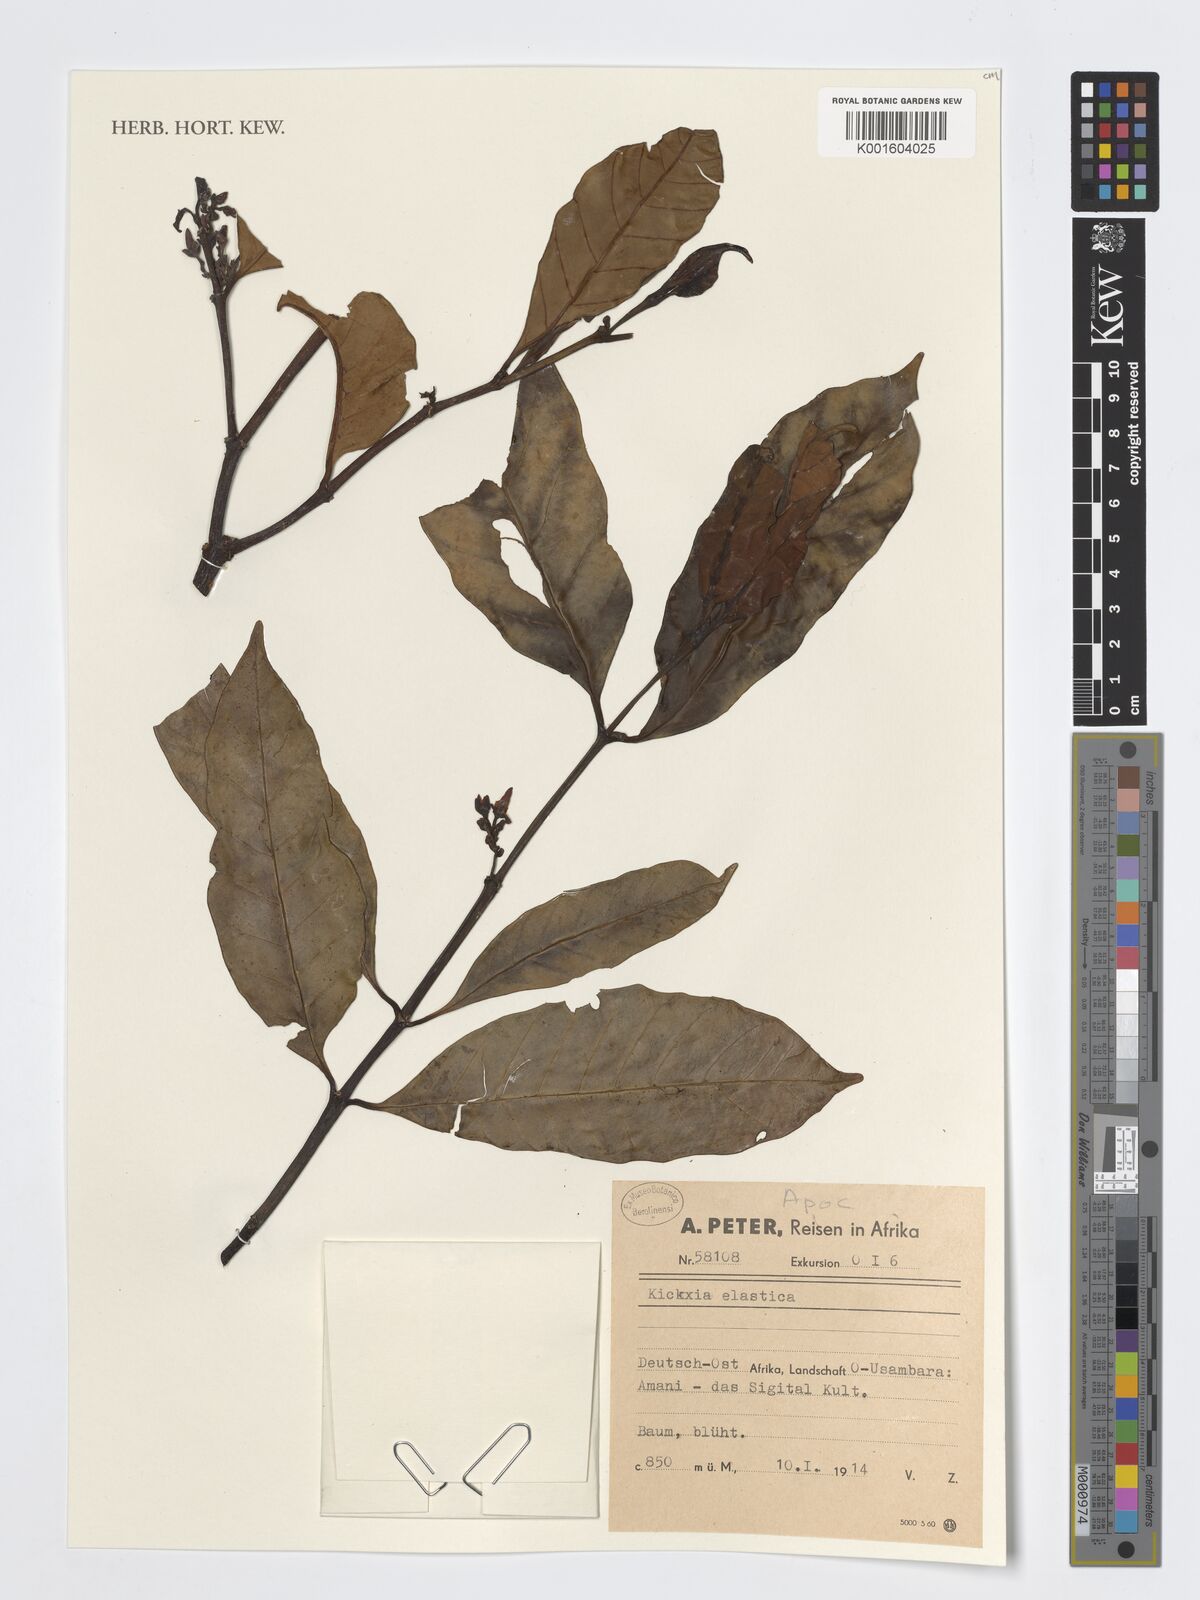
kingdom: Plantae
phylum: Tracheophyta
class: Magnoliopsida
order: Gentianales
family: Apocynaceae
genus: Funtumia
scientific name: Funtumia elastica
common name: Silkrubber
